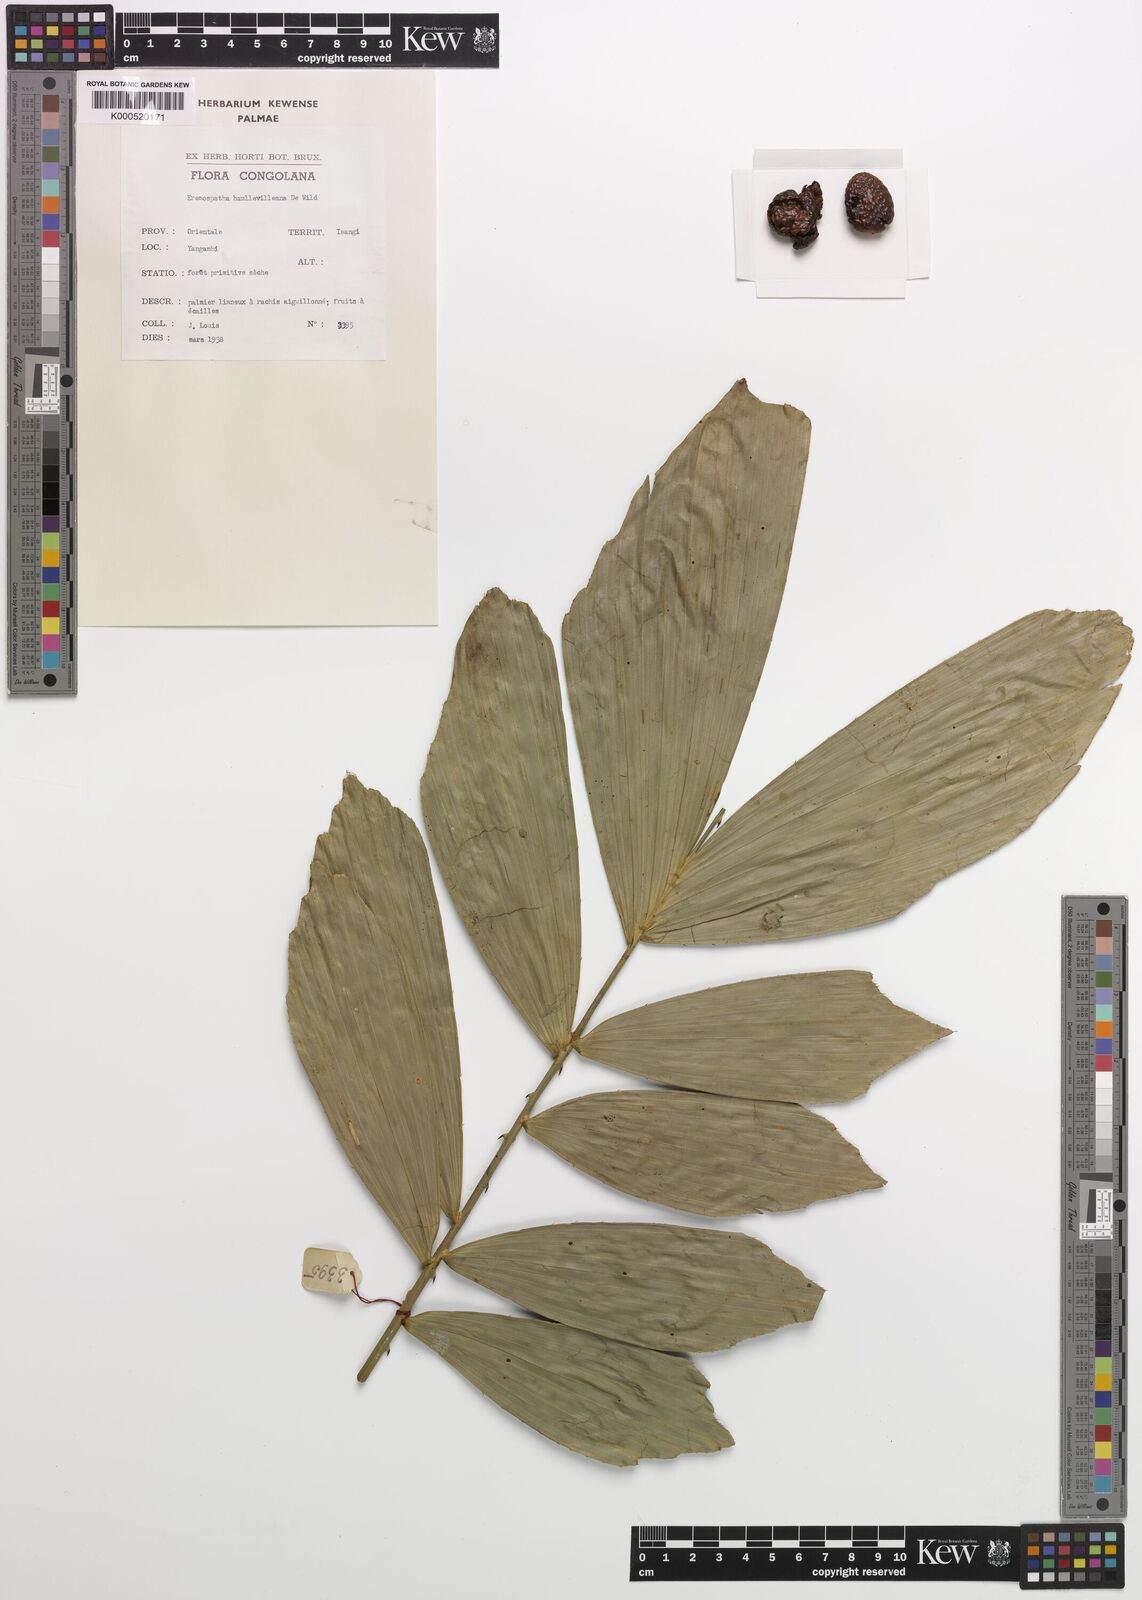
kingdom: Plantae
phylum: Tracheophyta
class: Liliopsida
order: Arecales
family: Arecaceae
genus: Eremospatha
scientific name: Eremospatha haullevilleana
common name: Rattan
